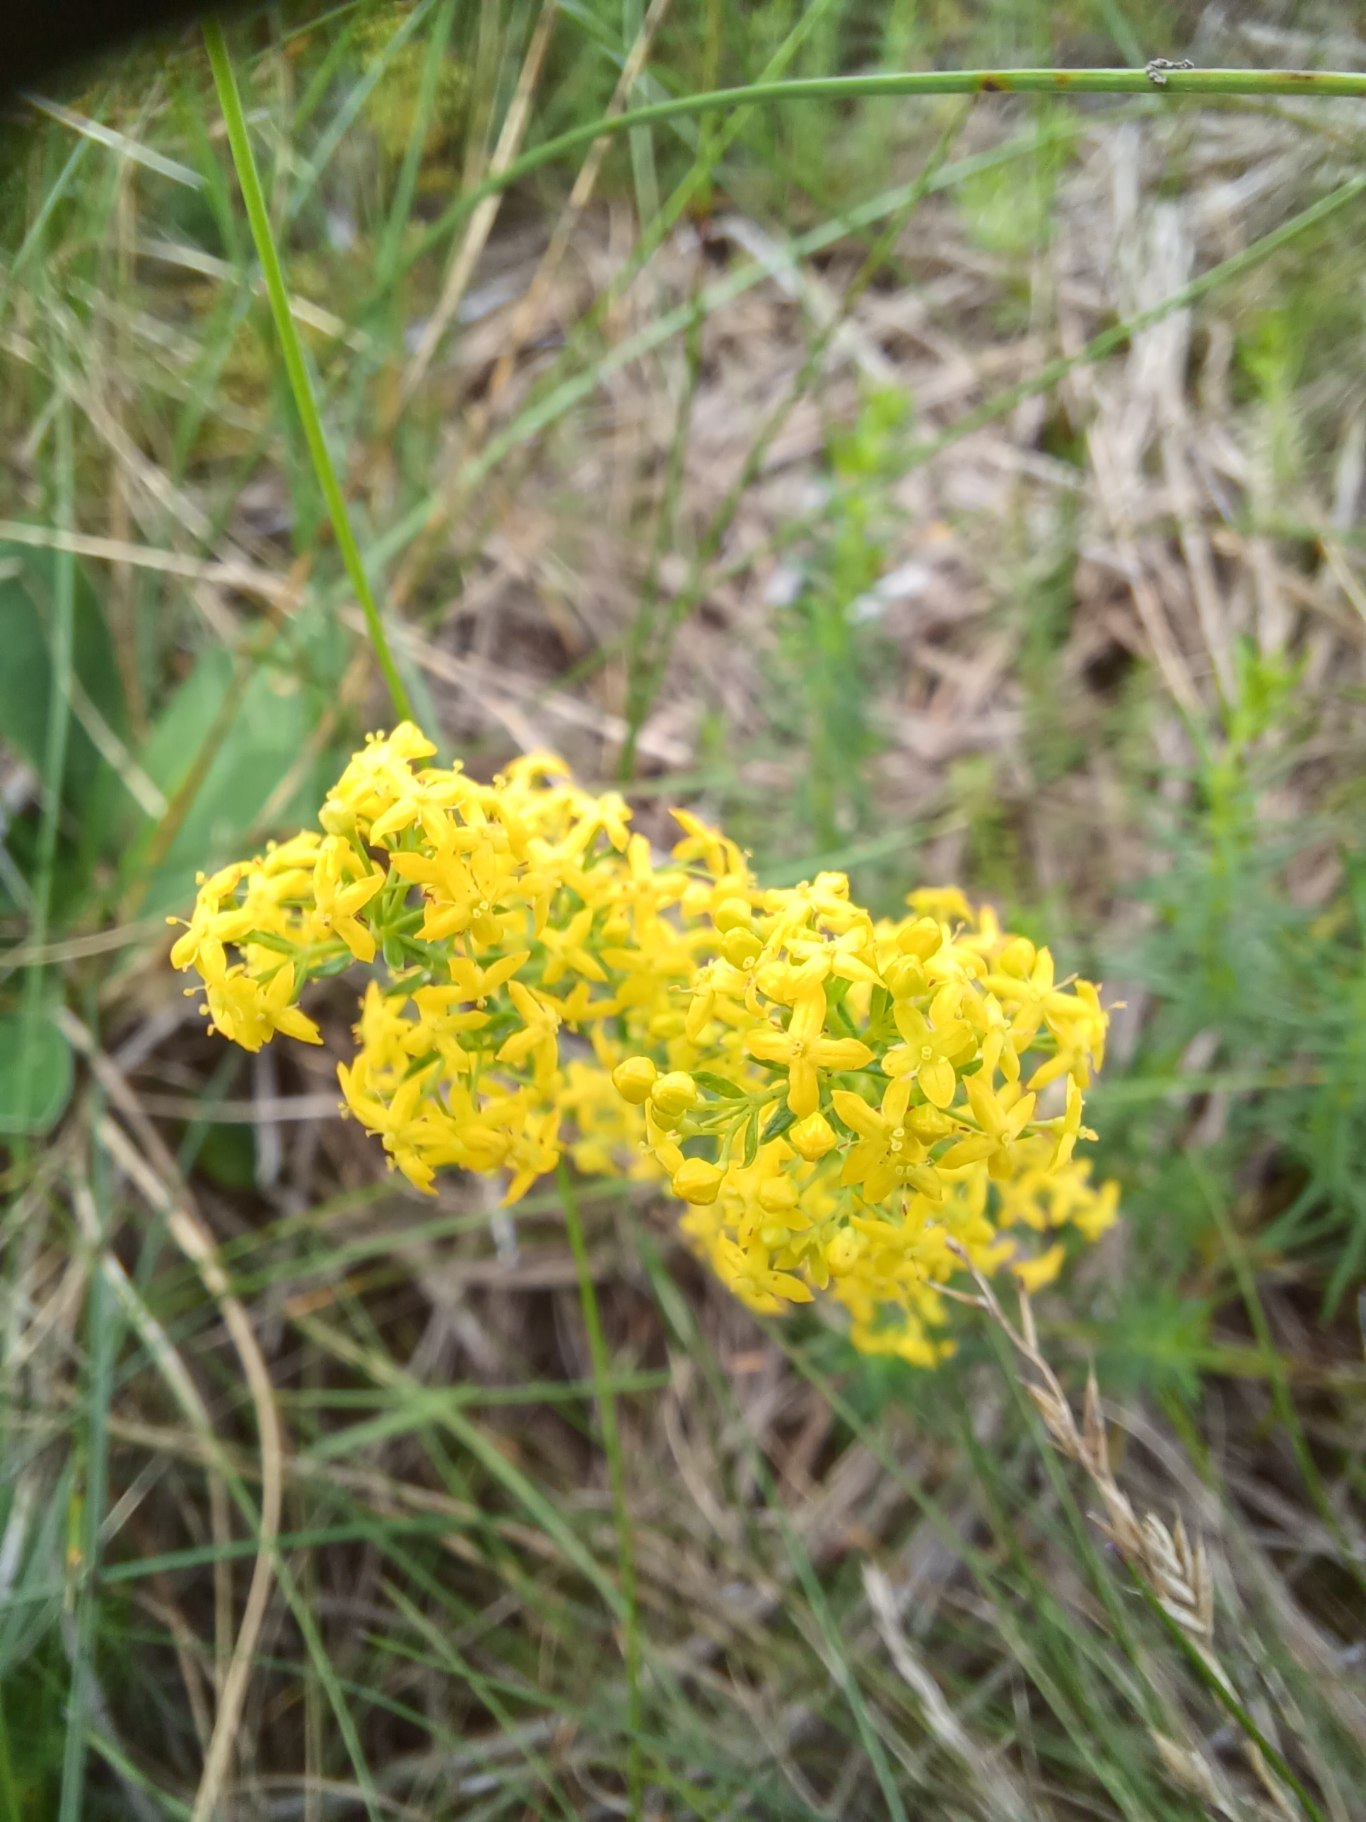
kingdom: Plantae
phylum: Tracheophyta
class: Magnoliopsida
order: Gentianales
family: Rubiaceae
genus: Galium
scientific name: Galium verum
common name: Gul snerre
